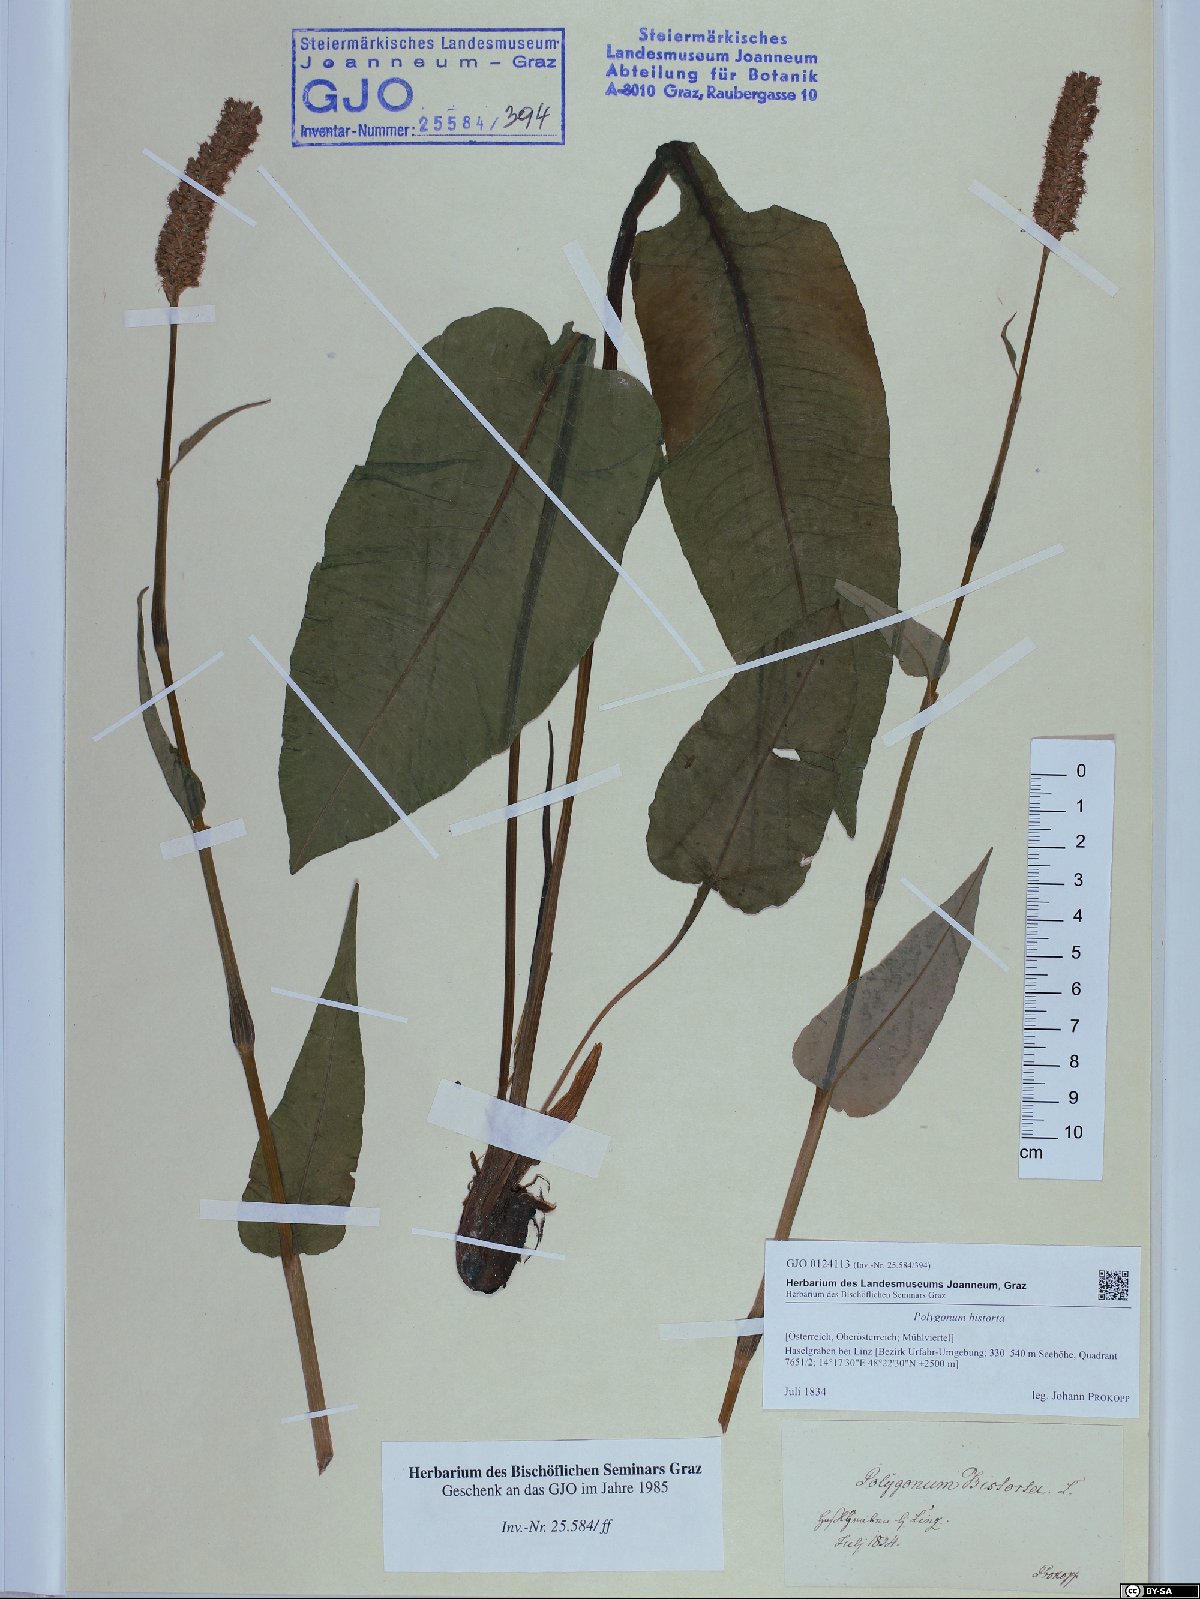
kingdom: Plantae
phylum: Tracheophyta
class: Magnoliopsida
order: Caryophyllales
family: Polygonaceae
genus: Bistorta
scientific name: Bistorta officinalis
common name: Common bistort
